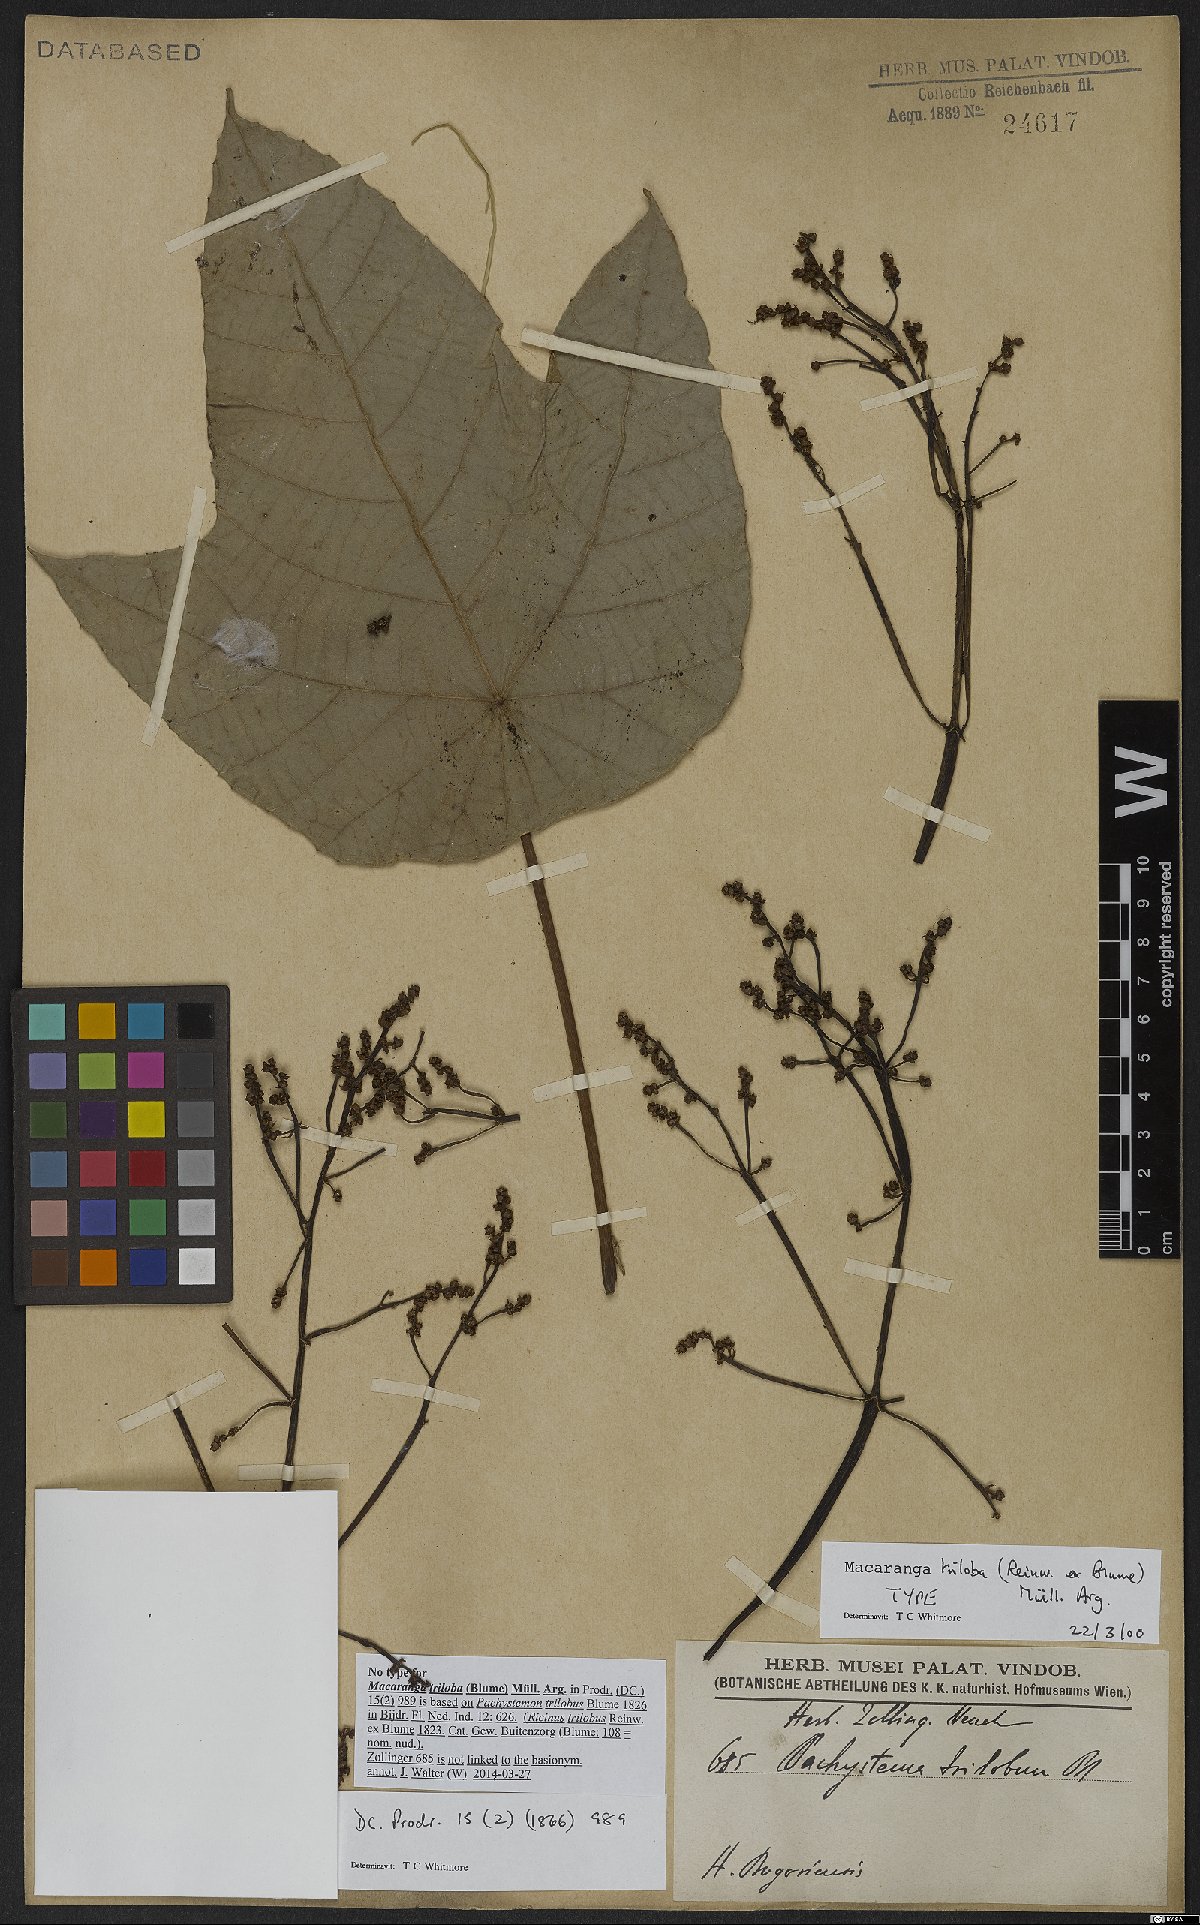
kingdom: Plantae
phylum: Tracheophyta
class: Magnoliopsida
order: Malpighiales
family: Euphorbiaceae
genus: Macaranga
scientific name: Macaranga triloba
